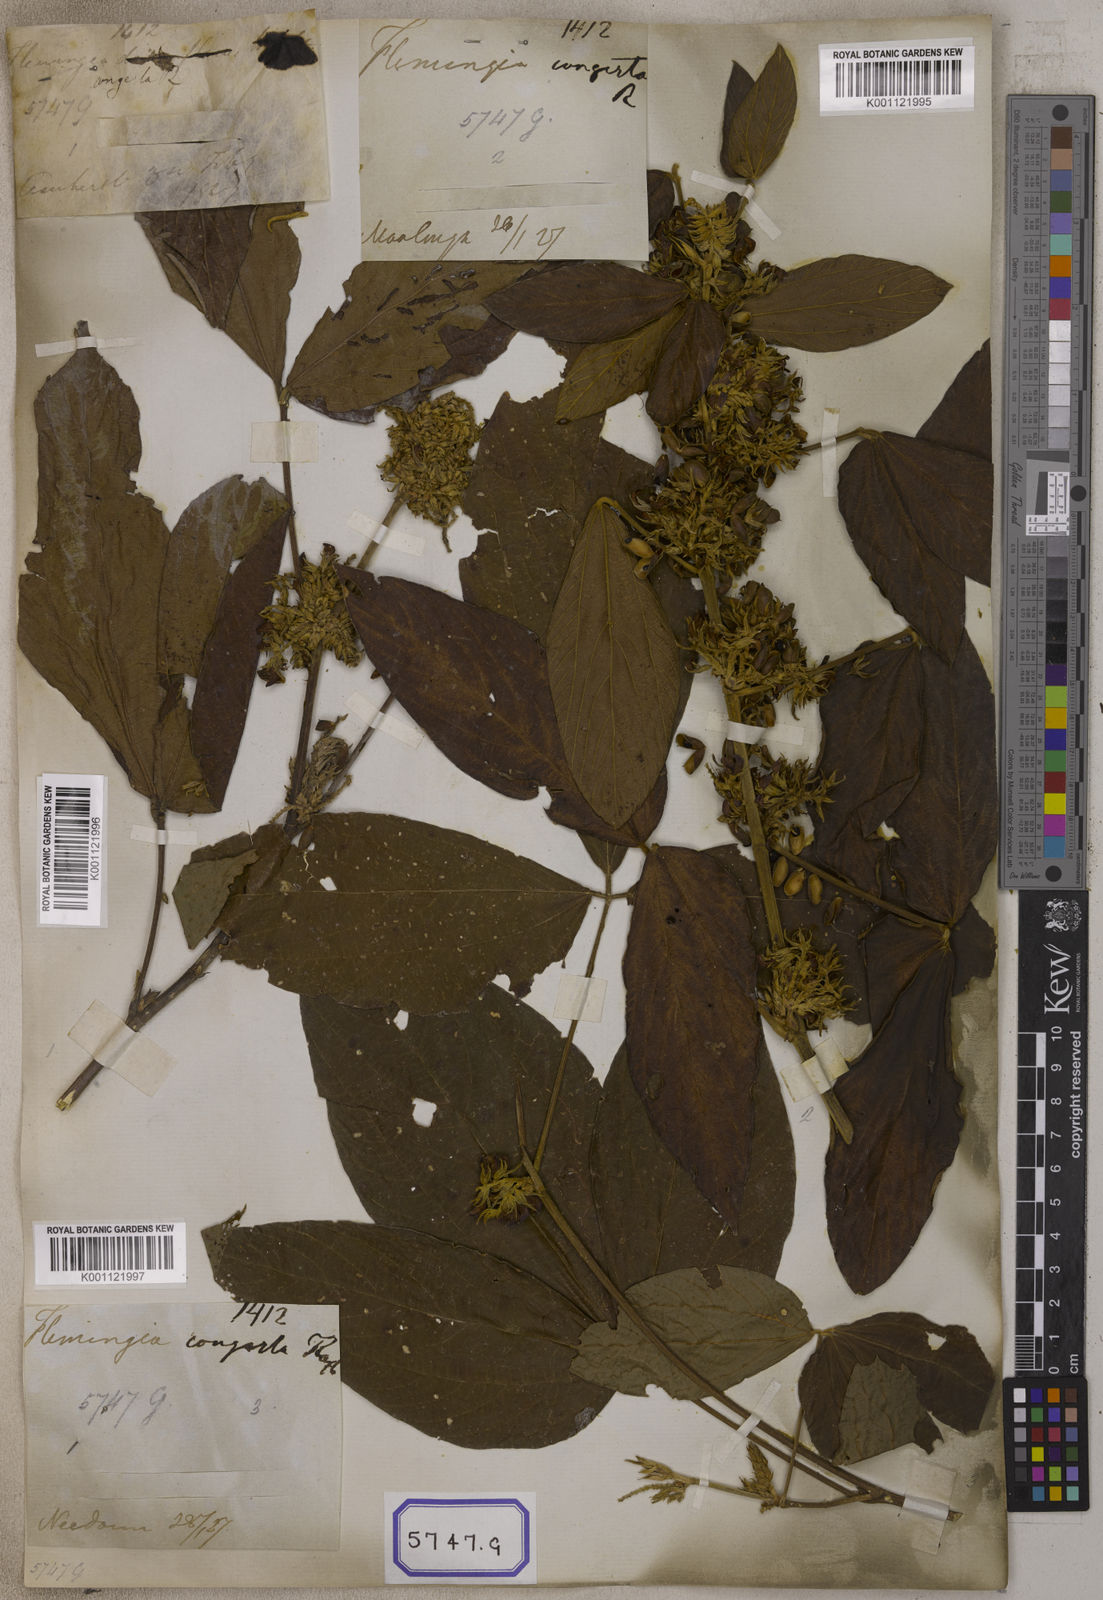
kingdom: Plantae
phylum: Tracheophyta
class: Magnoliopsida
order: Fabales
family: Fabaceae
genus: Flemingia
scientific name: Flemingia
